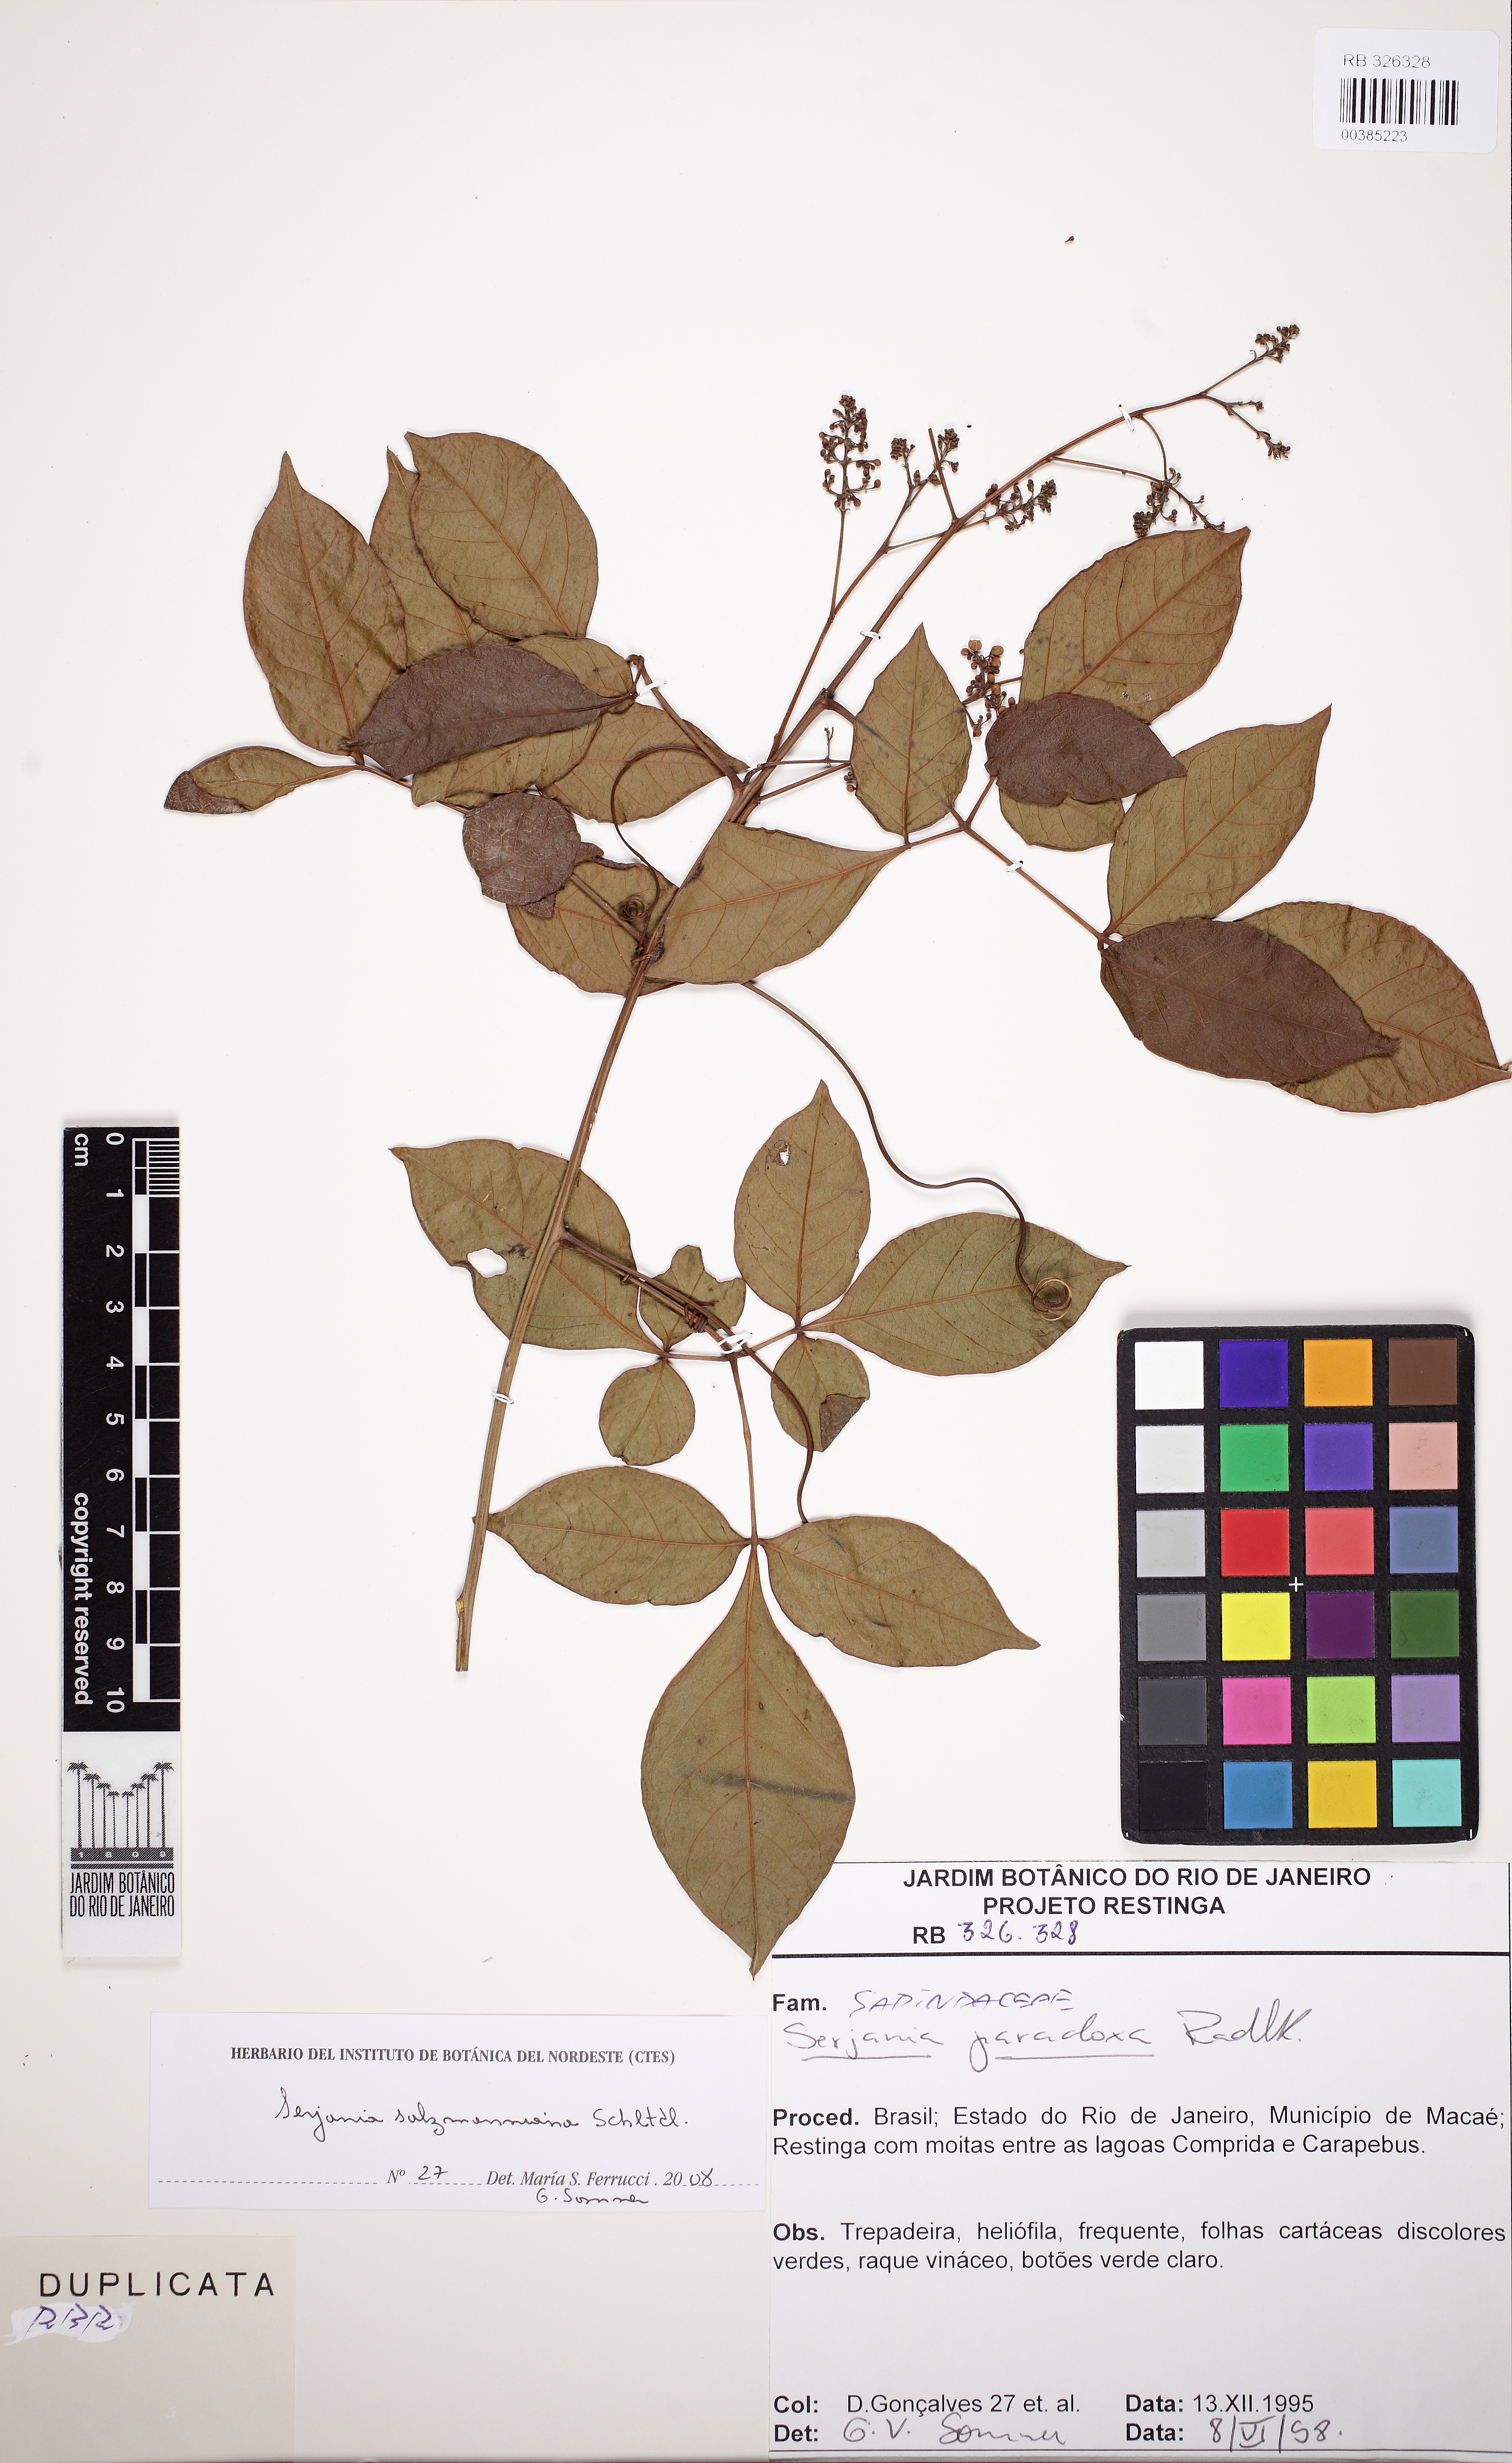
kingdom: Plantae
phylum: Tracheophyta
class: Magnoliopsida
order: Sapindales
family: Sapindaceae
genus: Serjania
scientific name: Serjania salzmanniana
